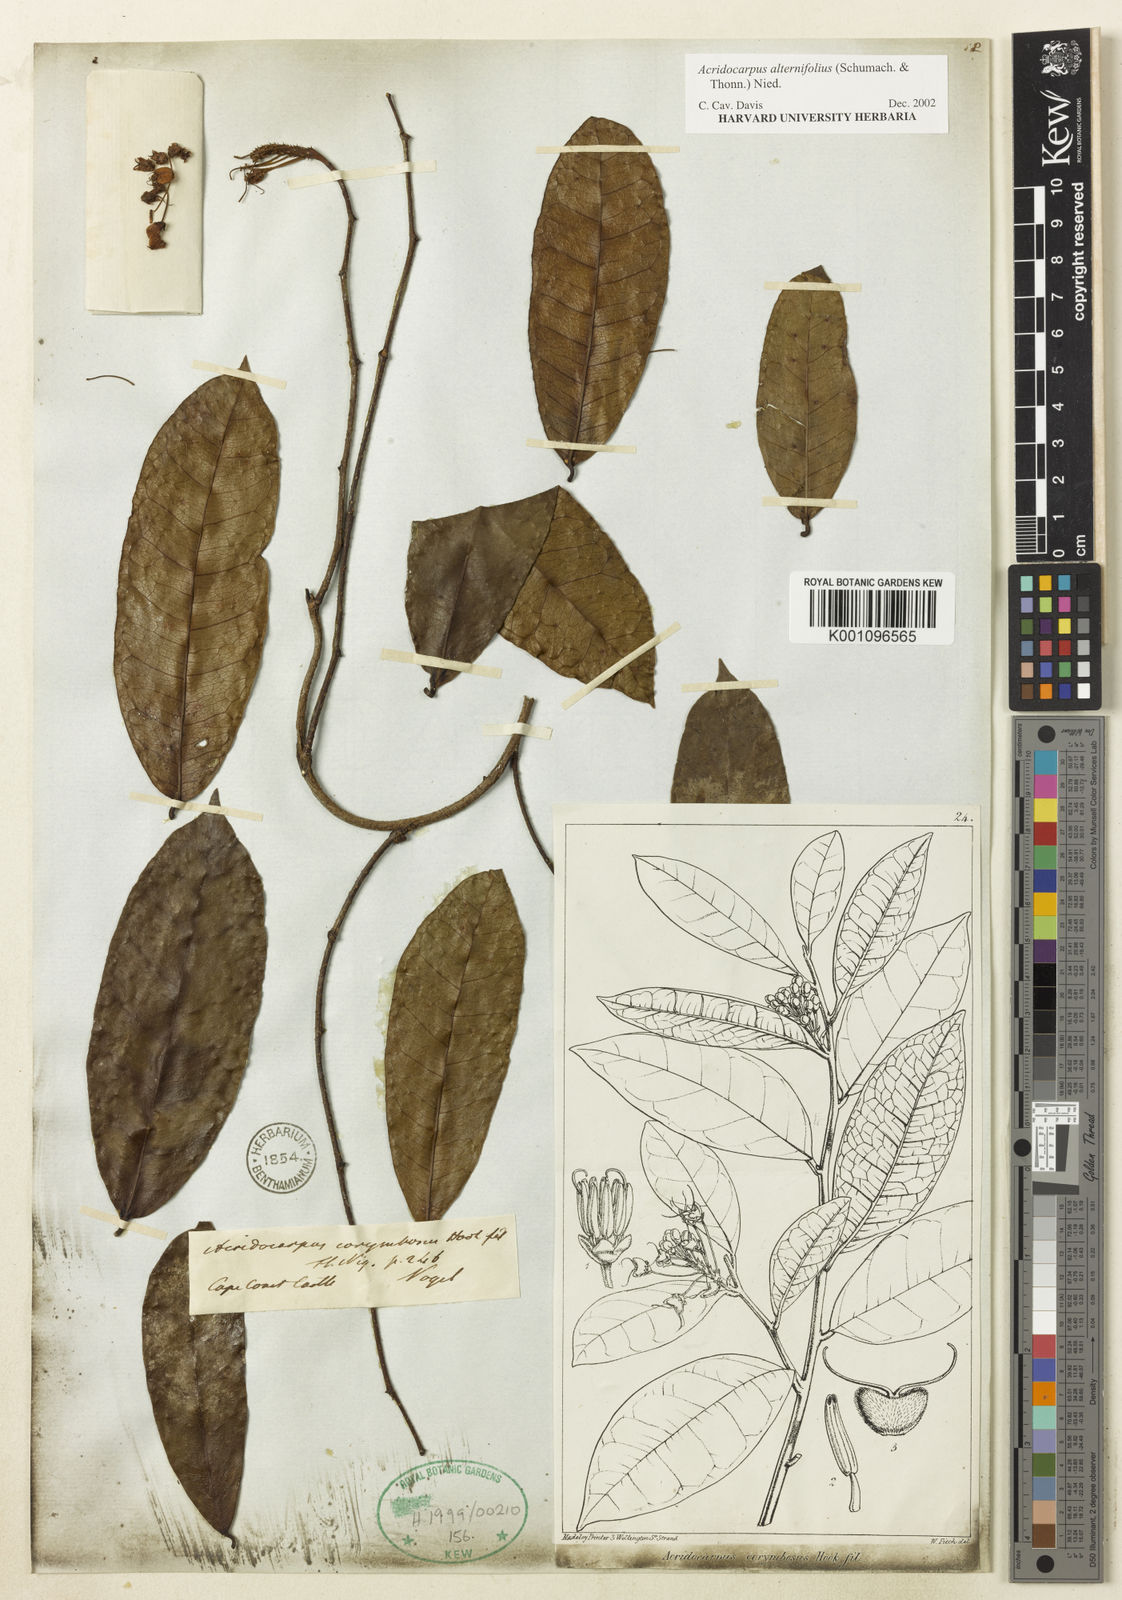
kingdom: Plantae
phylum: Tracheophyta
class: Magnoliopsida
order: Malpighiales
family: Malpighiaceae
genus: Acridocarpus
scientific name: Acridocarpus alternifolius
